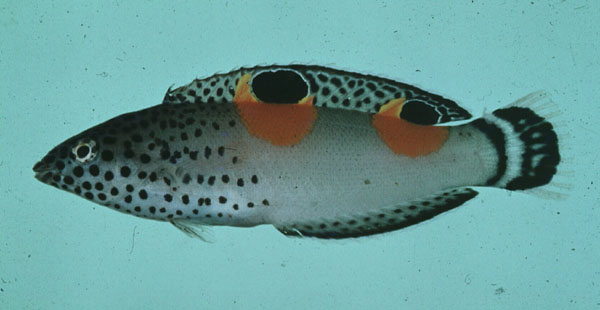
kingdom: Animalia
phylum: Chordata
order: Perciformes
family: Labridae
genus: Coris
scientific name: Coris aygula
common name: Clown coris
